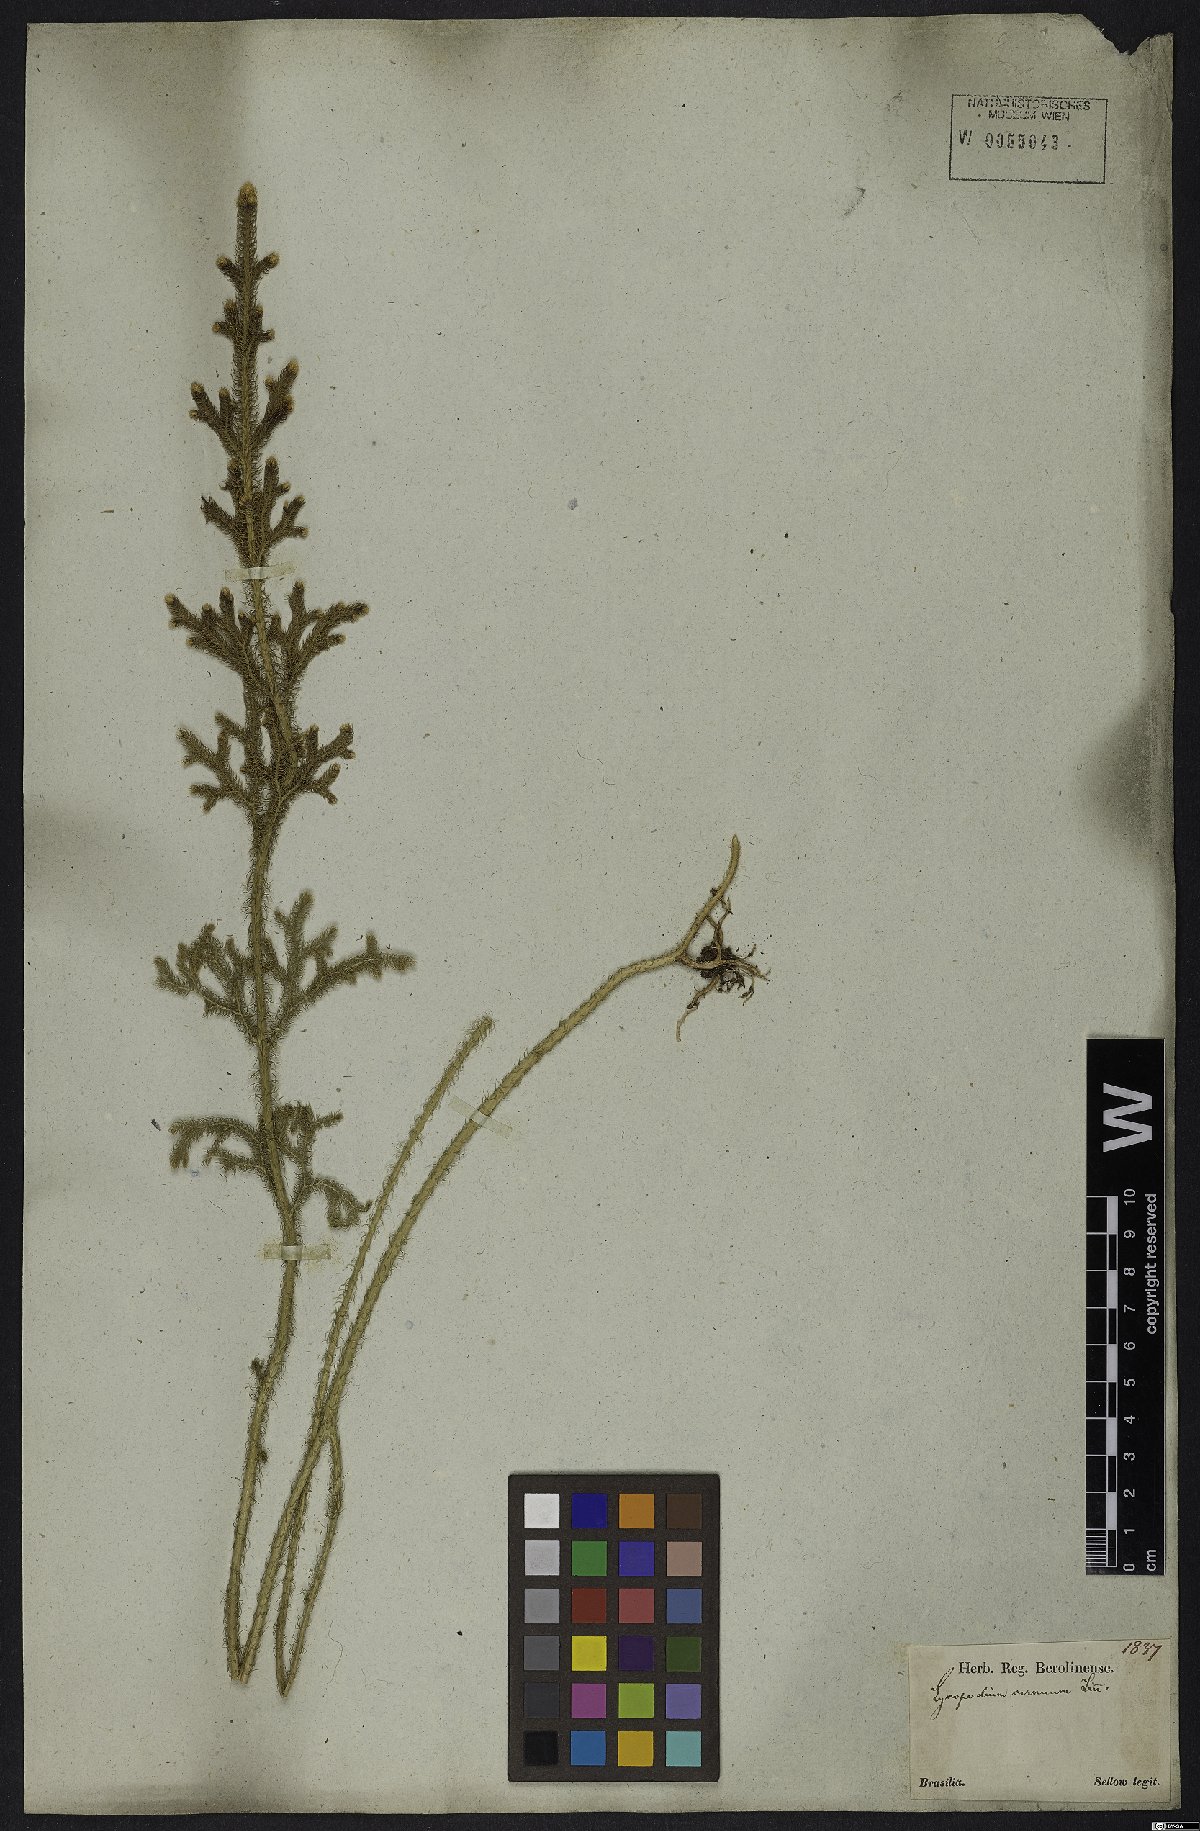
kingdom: Plantae
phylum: Tracheophyta
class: Lycopodiopsida
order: Lycopodiales
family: Lycopodiaceae
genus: Palhinhaea
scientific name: Palhinhaea cernua
